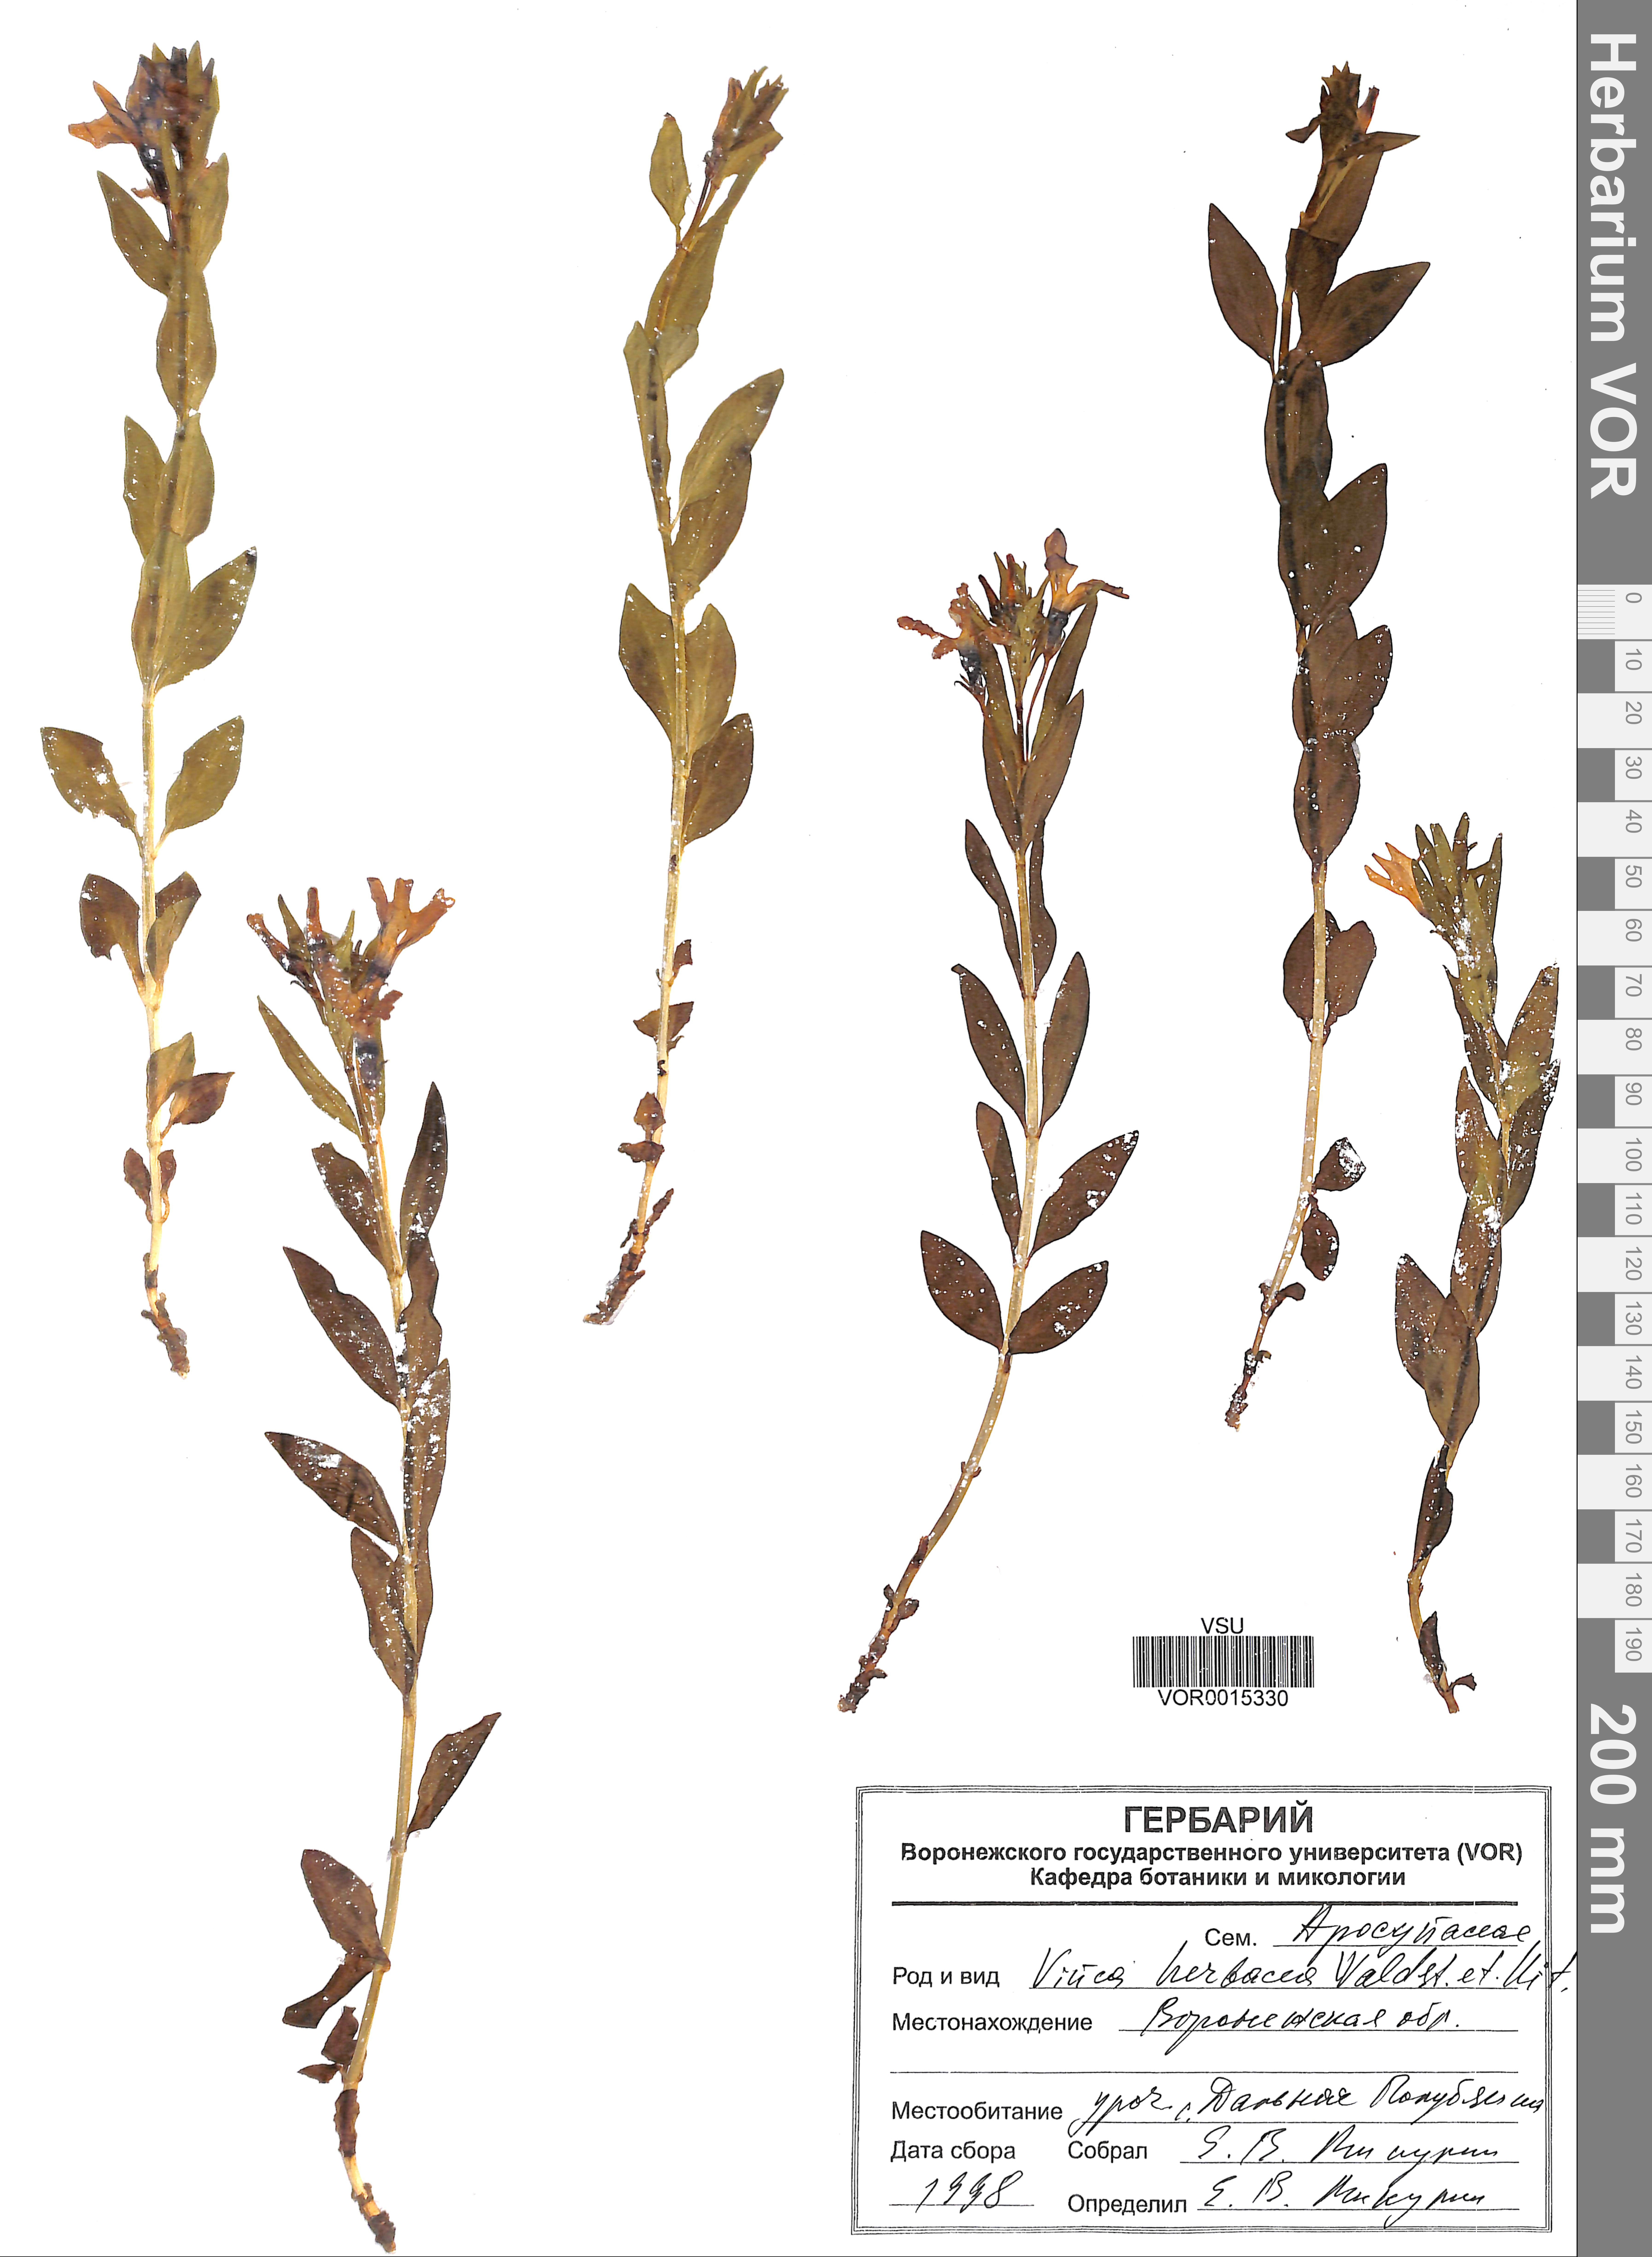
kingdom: Plantae
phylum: Tracheophyta
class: Magnoliopsida
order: Gentianales
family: Apocynaceae
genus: Vinca
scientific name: Vinca herbacea
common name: Herbaceous periwinkle
